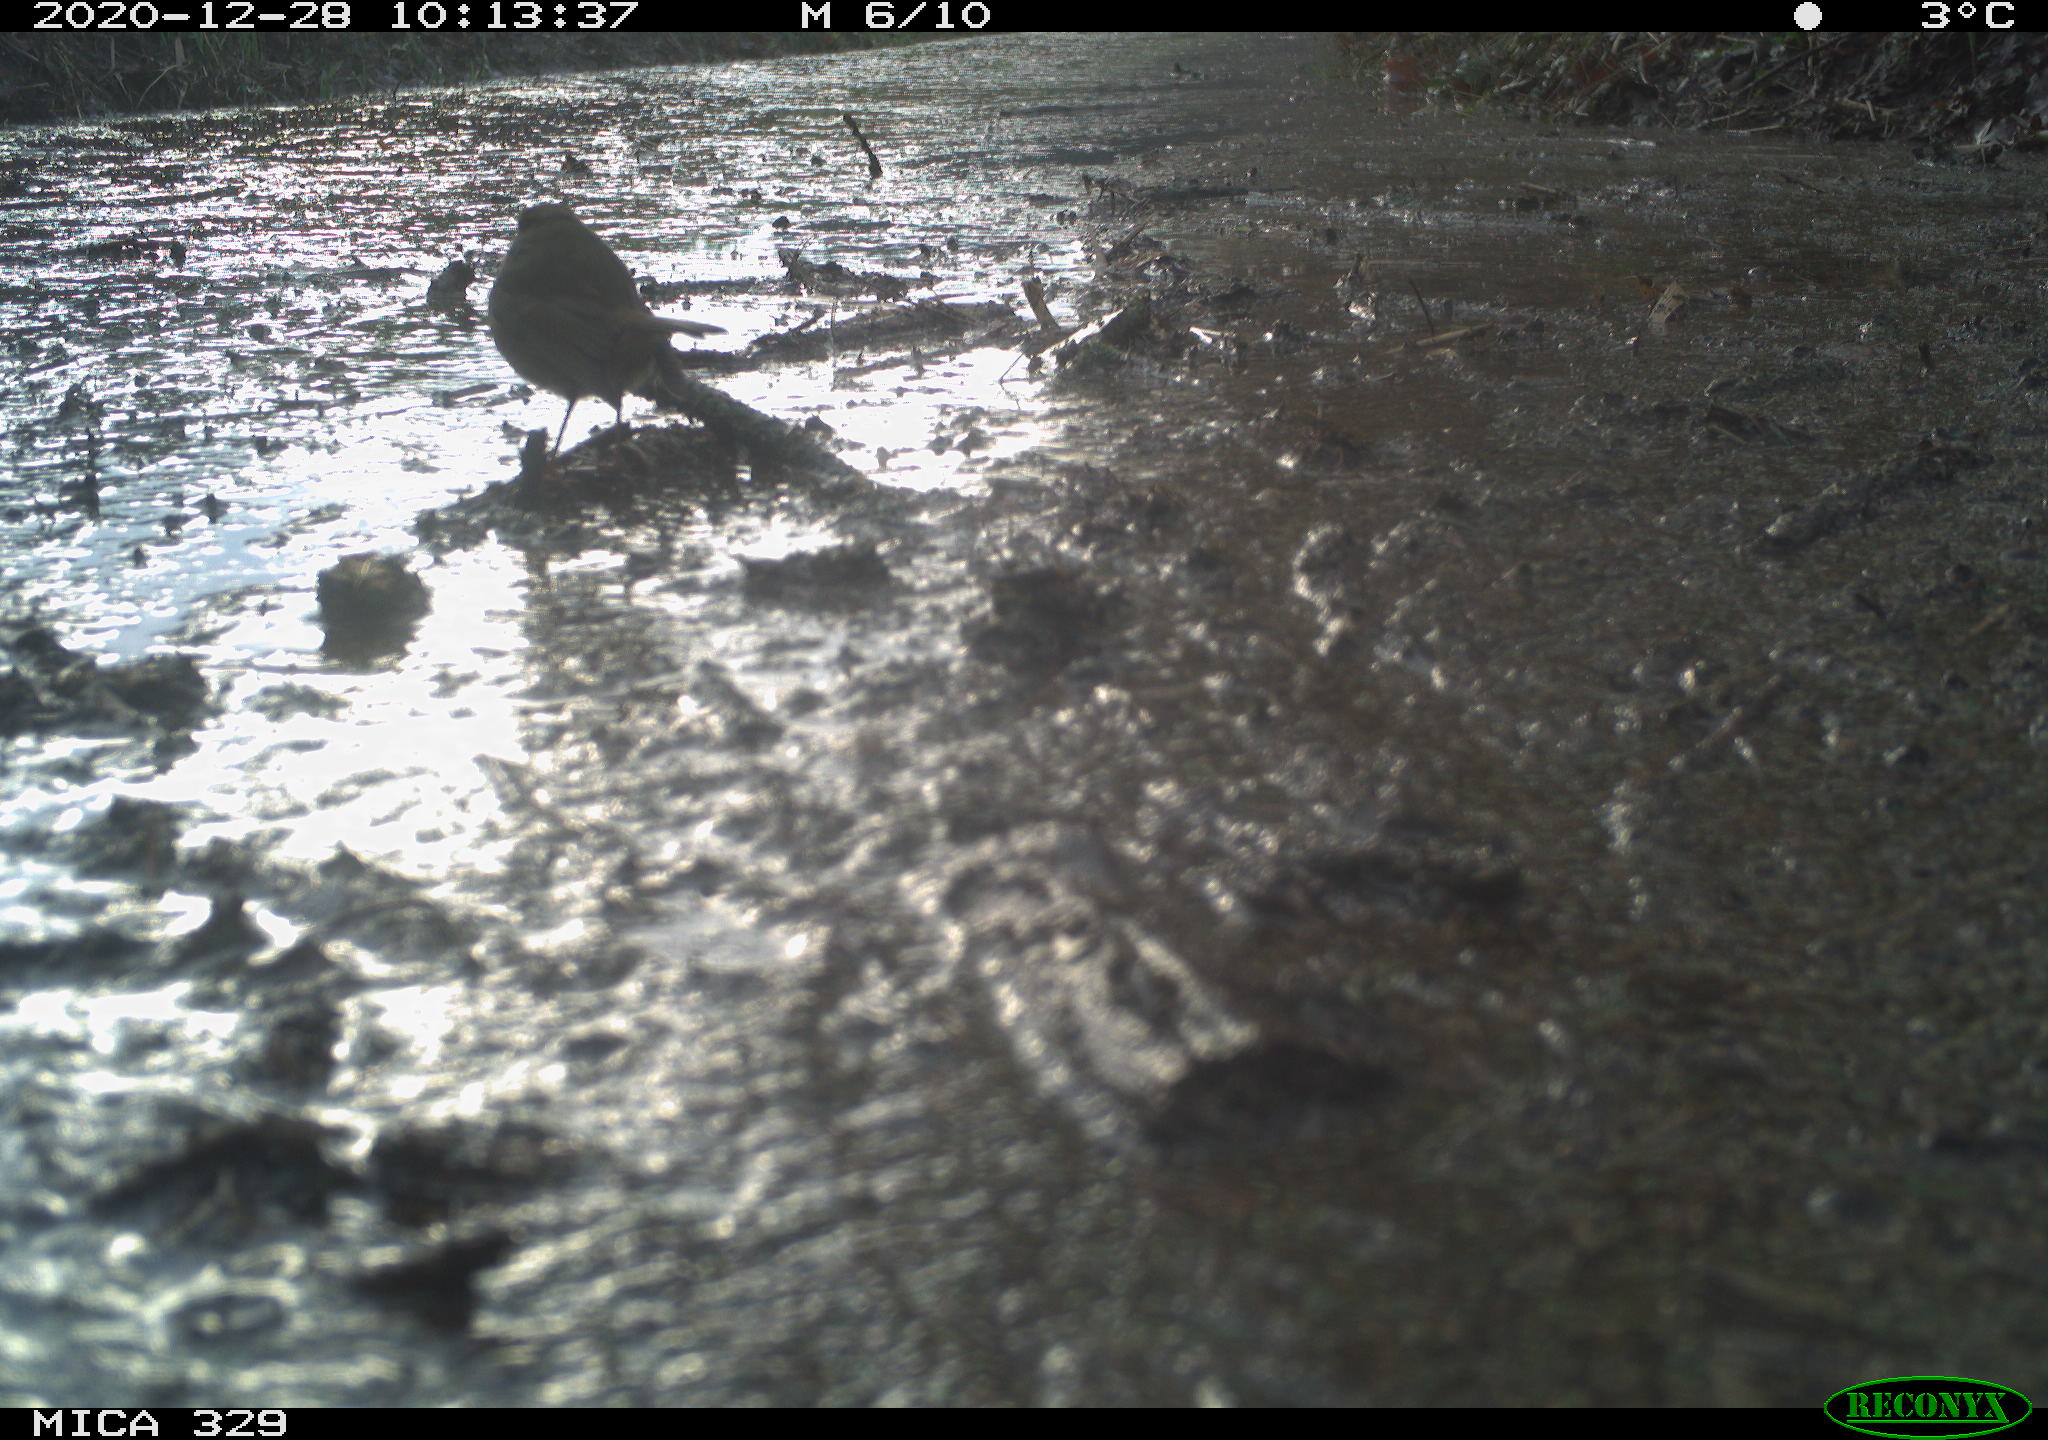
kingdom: Animalia
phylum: Chordata
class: Aves
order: Passeriformes
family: Muscicapidae
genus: Erithacus
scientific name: Erithacus rubecula
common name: European robin
